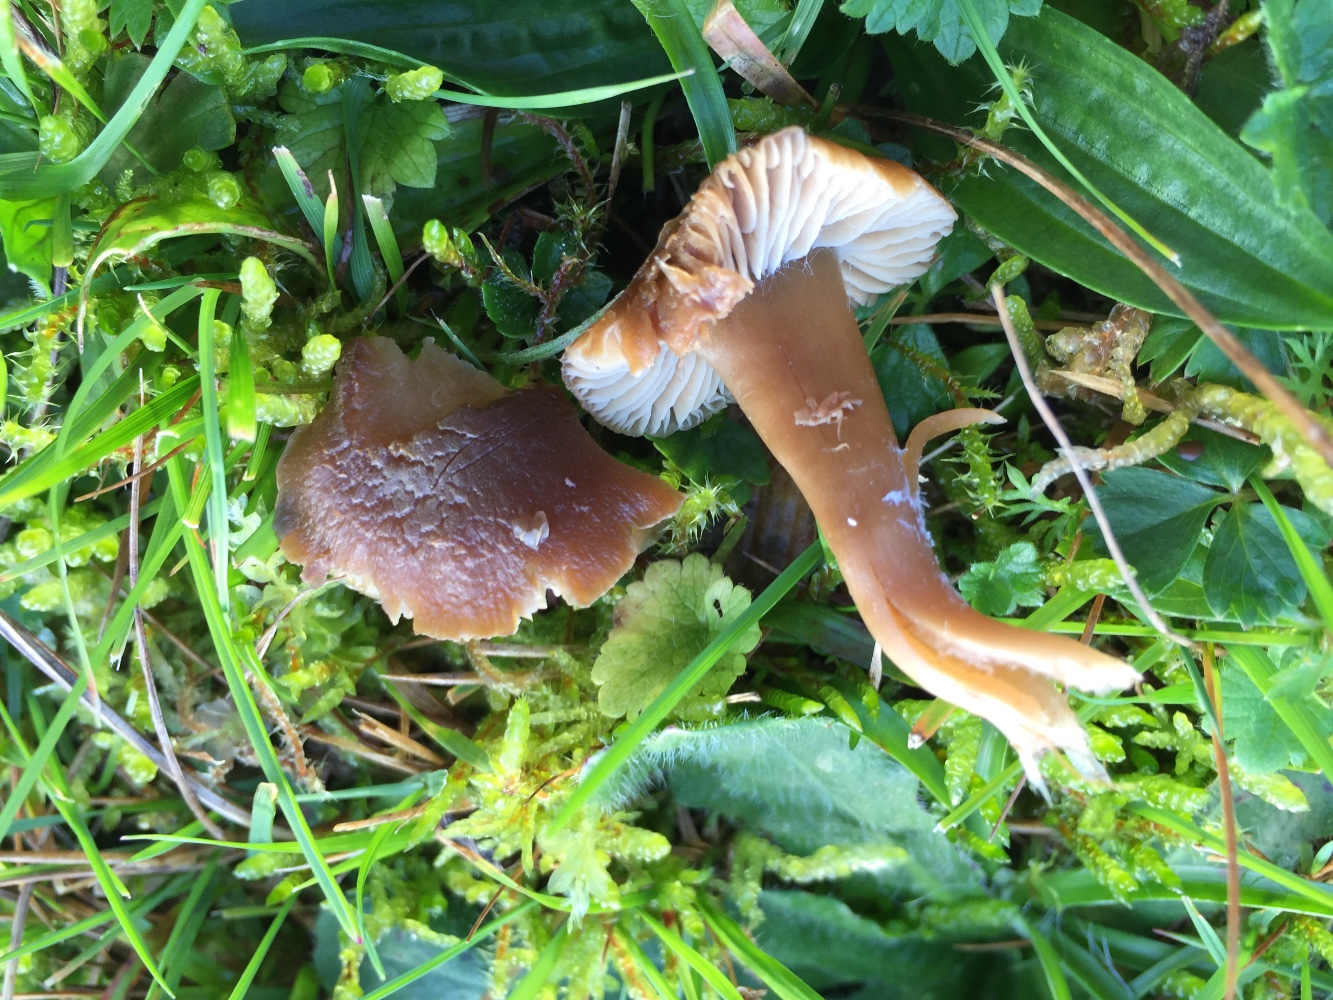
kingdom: Fungi
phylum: Basidiomycota
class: Agaricomycetes
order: Agaricales
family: Clavariaceae
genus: Camarophyllopsis
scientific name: Camarophyllopsis schulzeri
